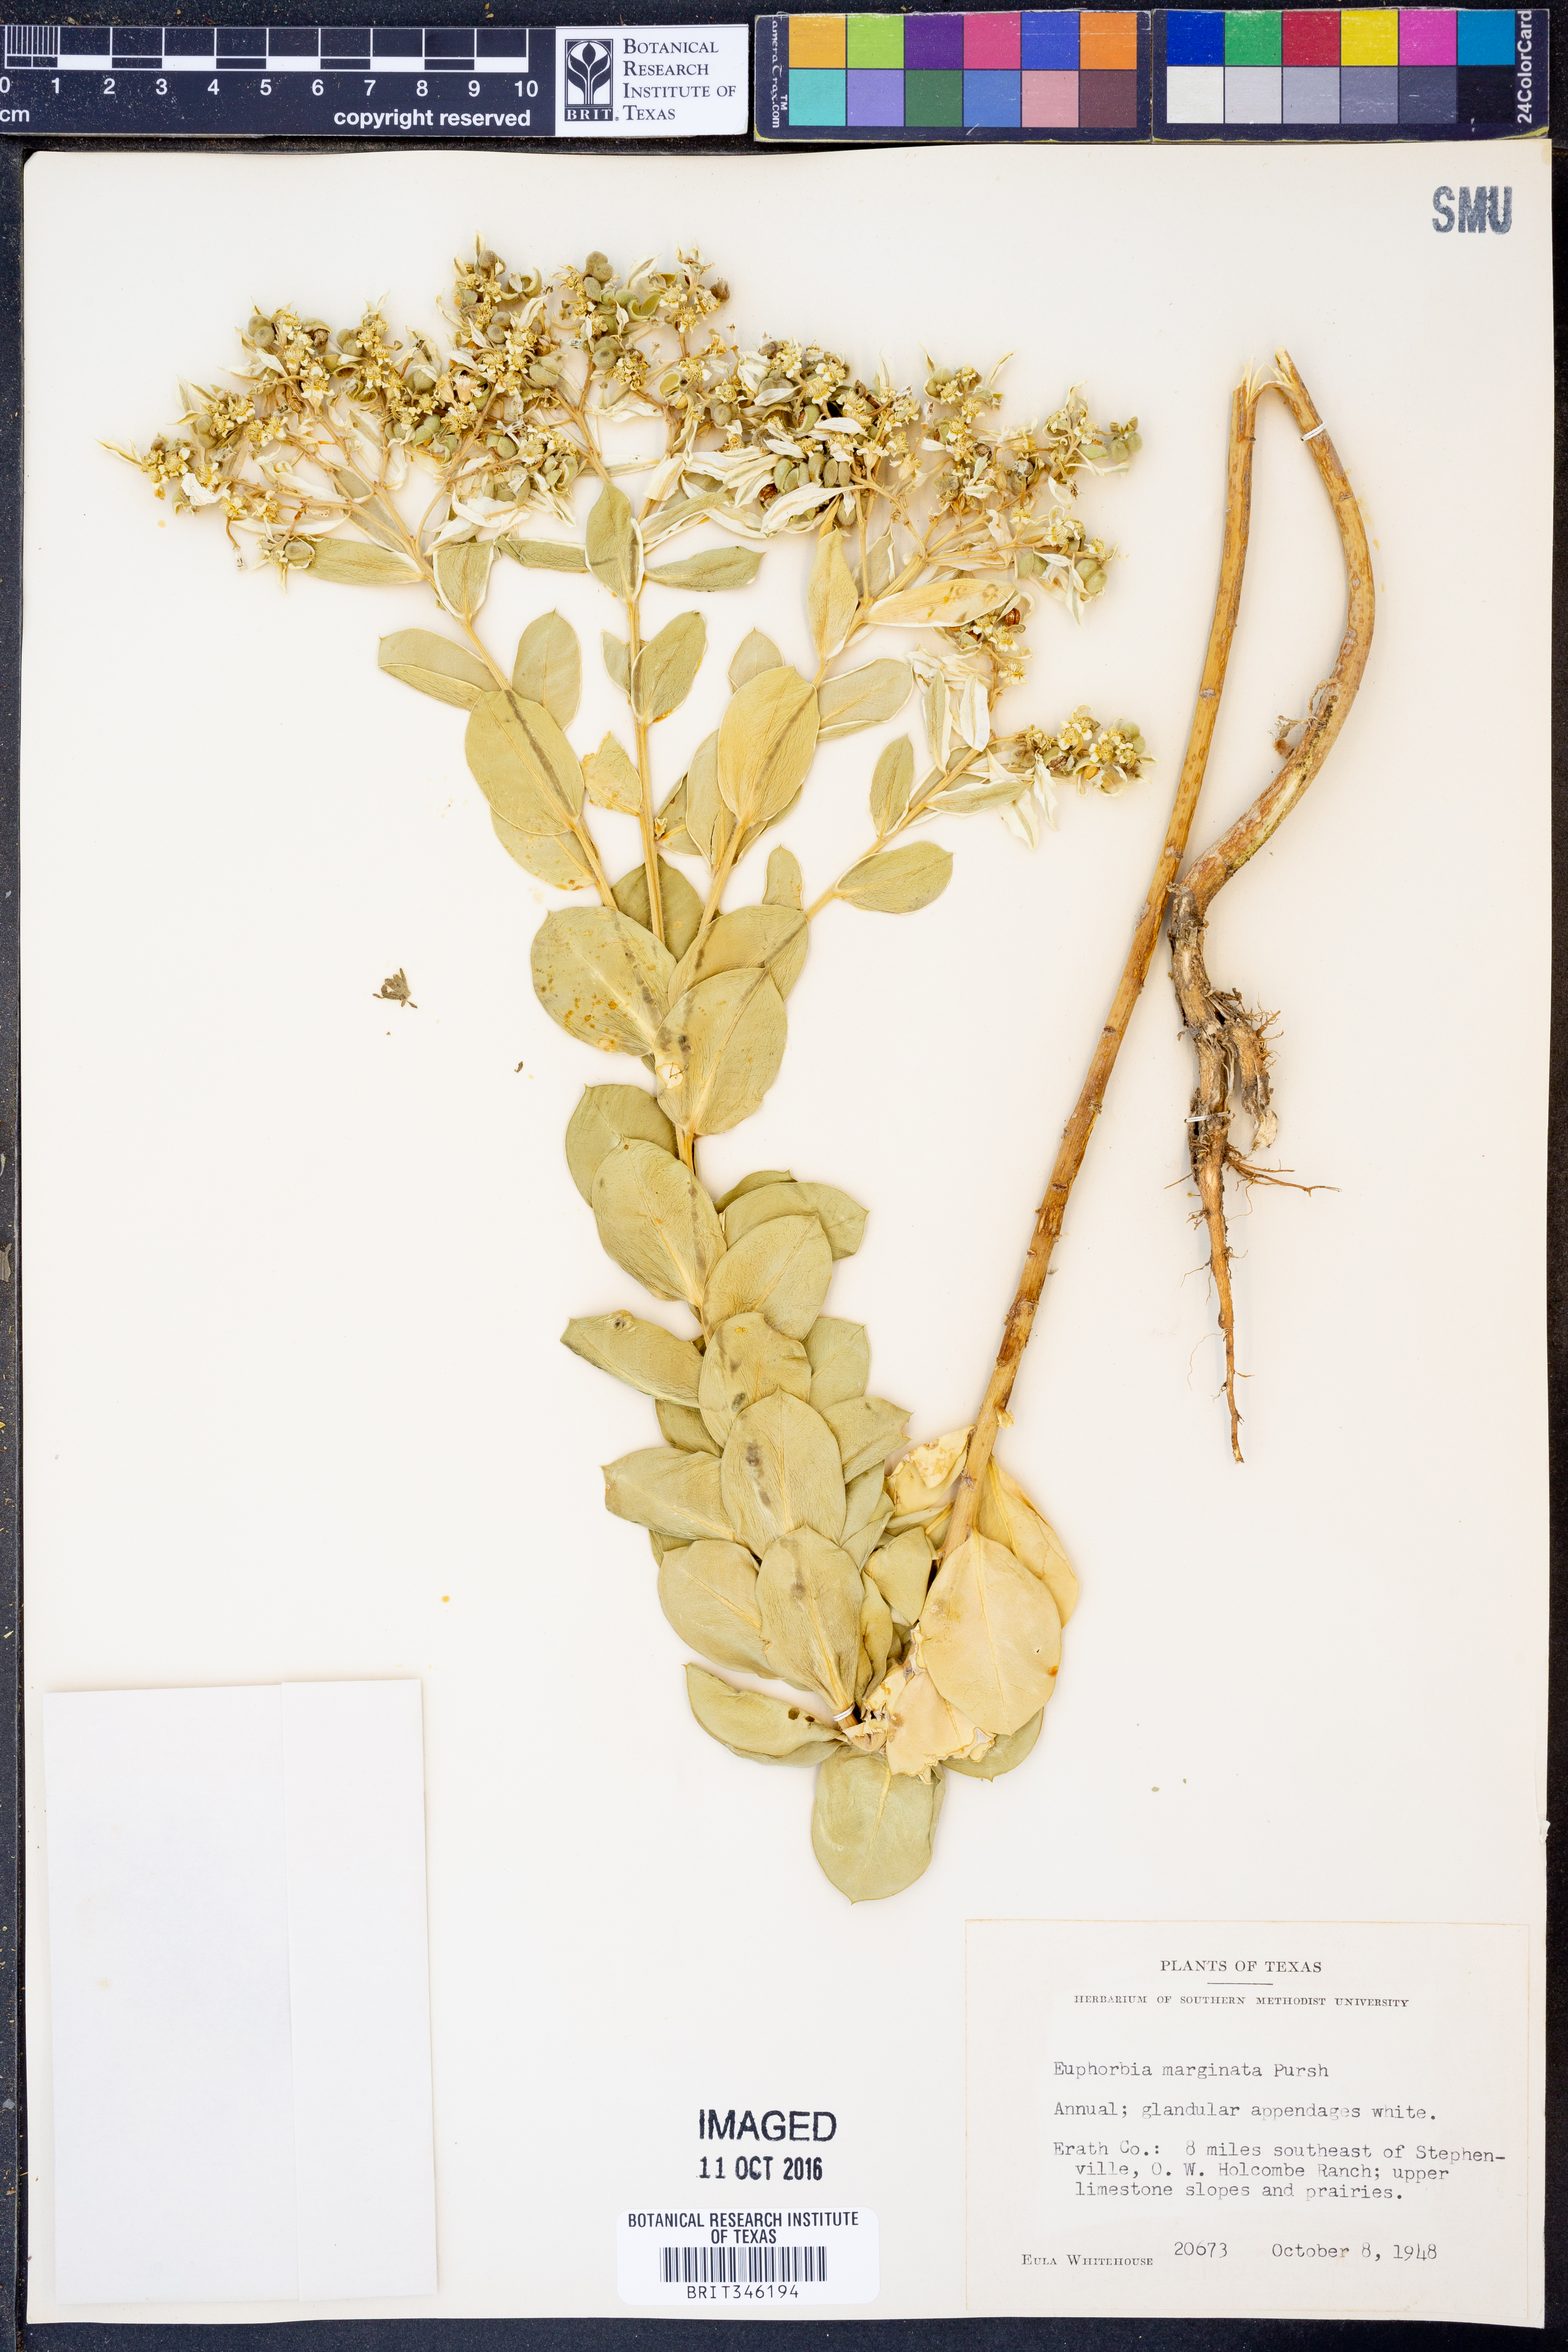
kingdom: Plantae
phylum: Tracheophyta
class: Magnoliopsida
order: Malpighiales
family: Euphorbiaceae
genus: Euphorbia
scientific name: Euphorbia marginata
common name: Ghostweed
